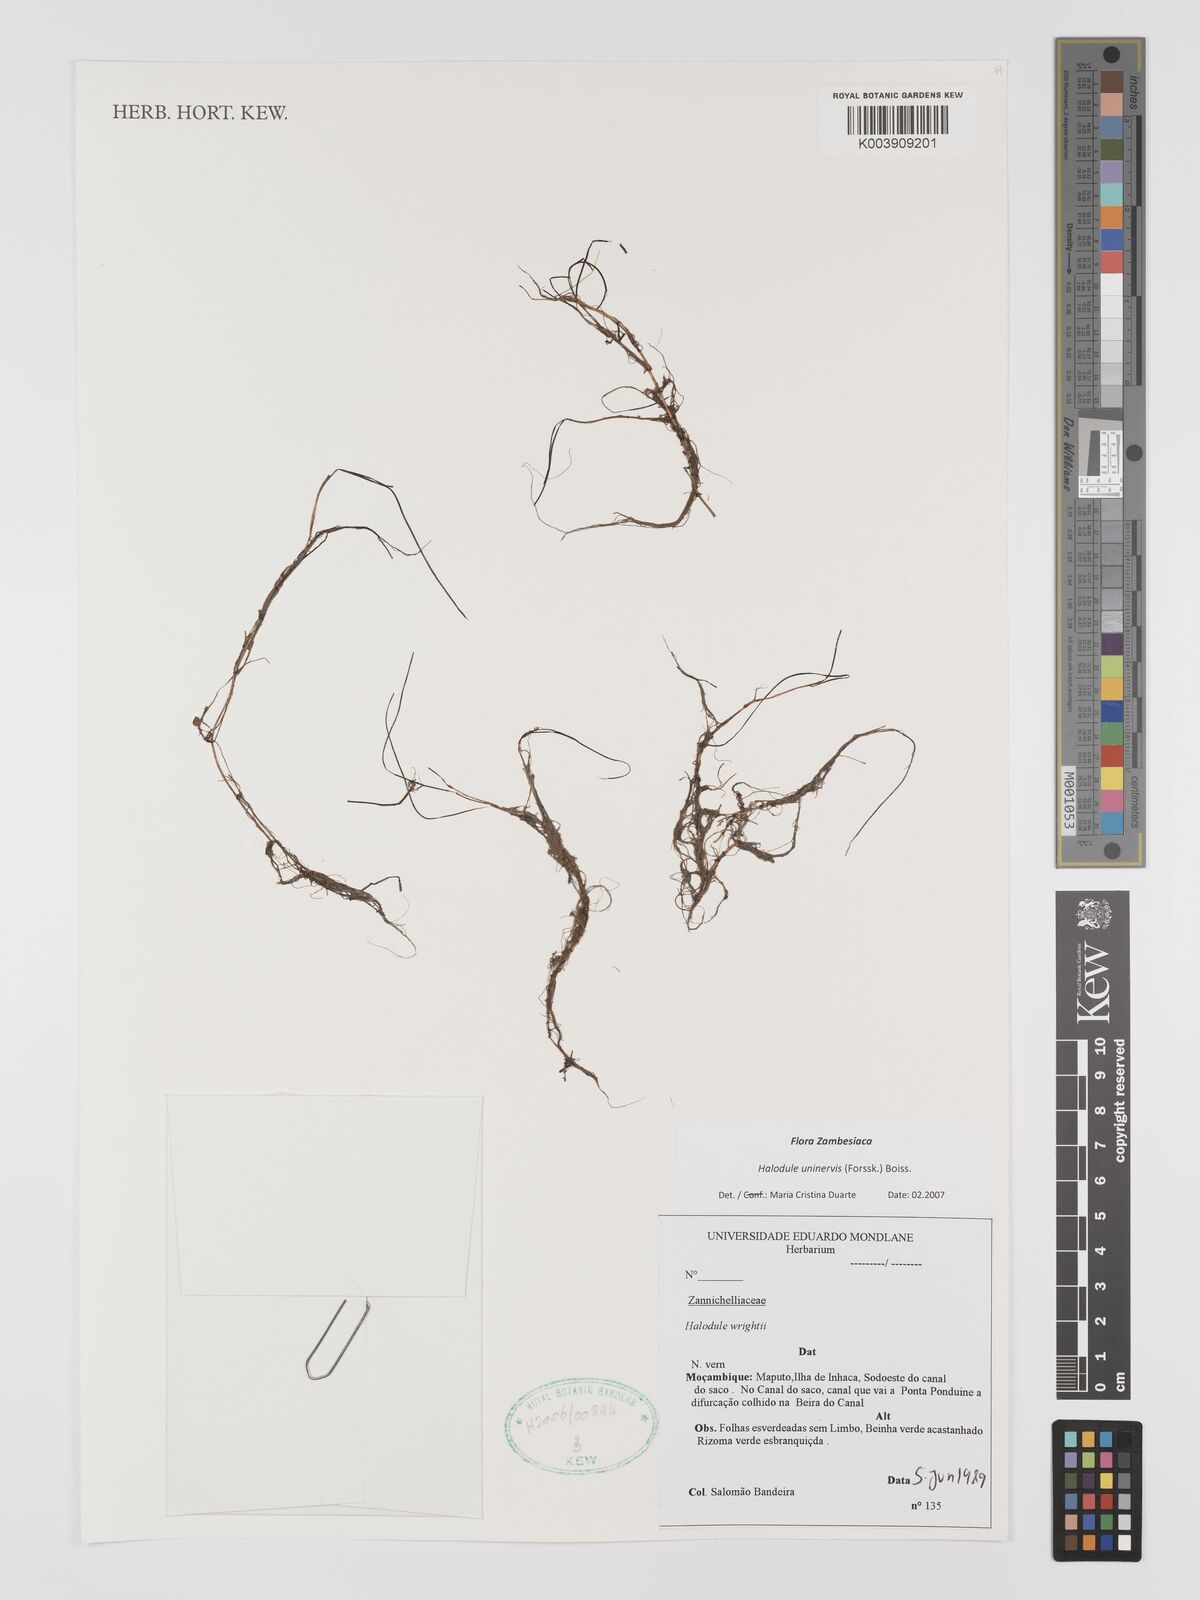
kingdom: Plantae
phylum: Tracheophyta
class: Liliopsida
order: Alismatales
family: Cymodoceaceae
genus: Halodule
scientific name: Halodule uninervis
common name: Narrowleaf seagrass
